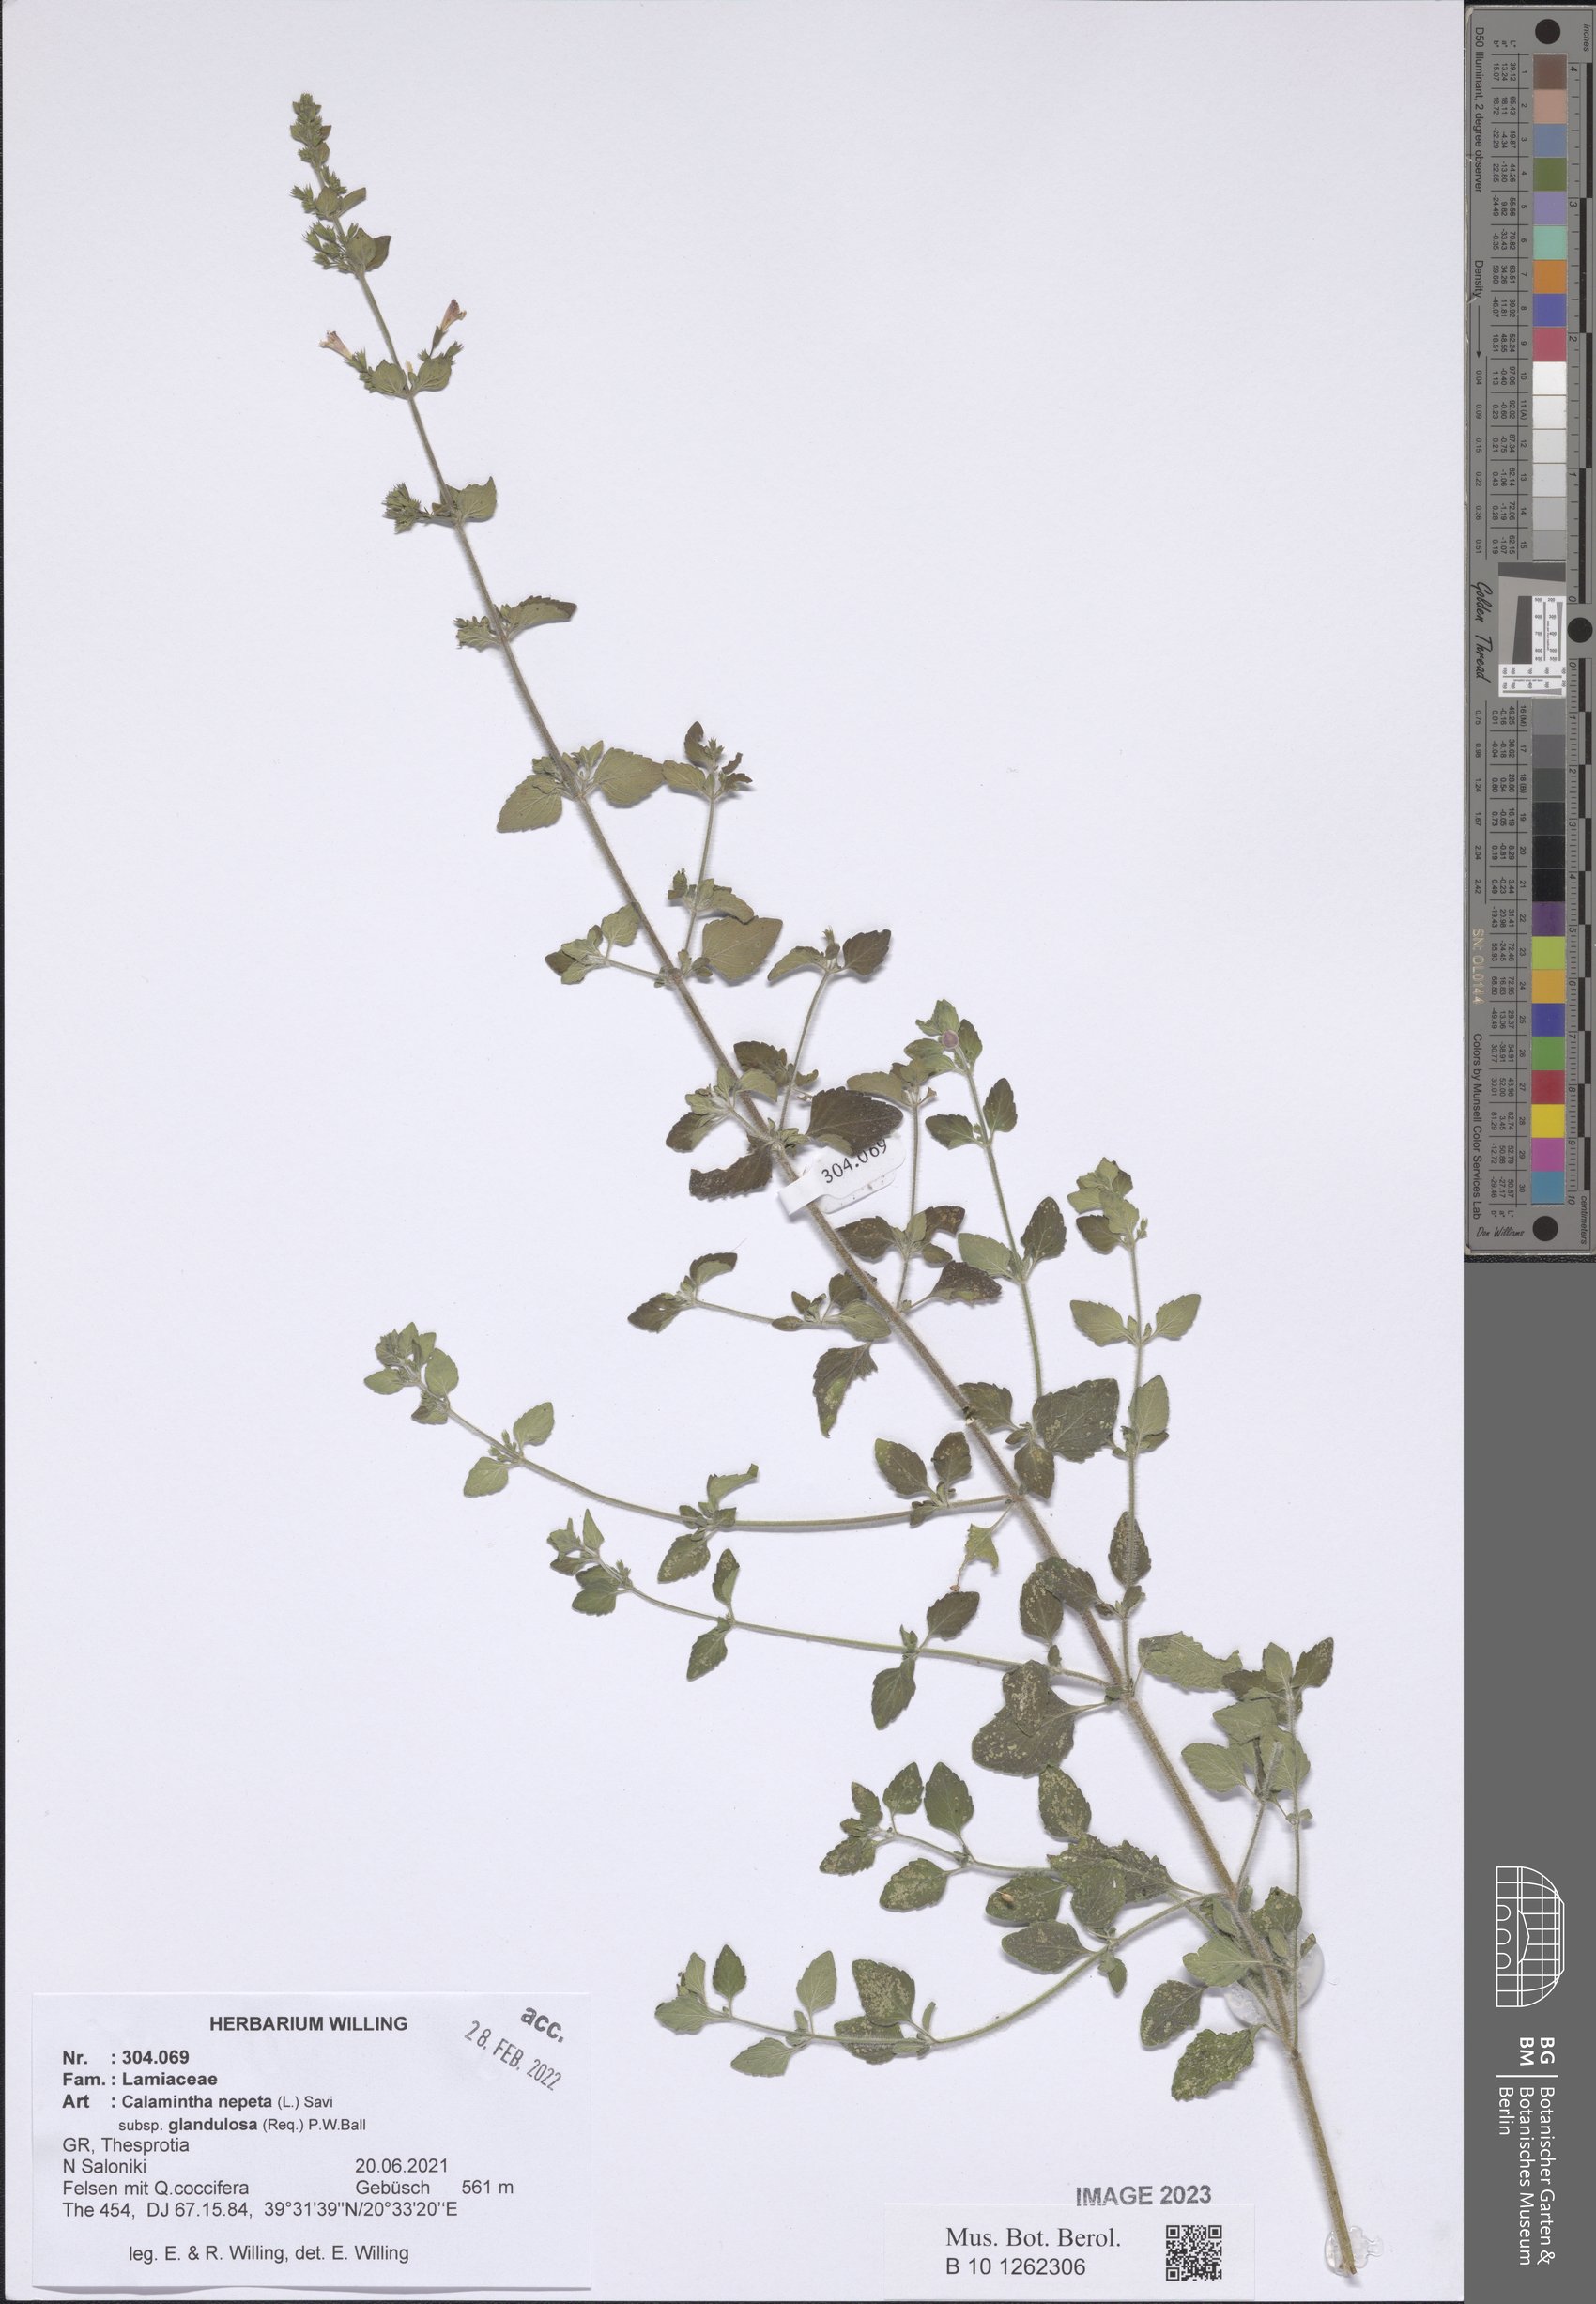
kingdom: Plantae
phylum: Tracheophyta
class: Magnoliopsida
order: Lamiales
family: Lamiaceae
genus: Clinopodium
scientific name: Clinopodium nepeta
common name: Lesser calamint
